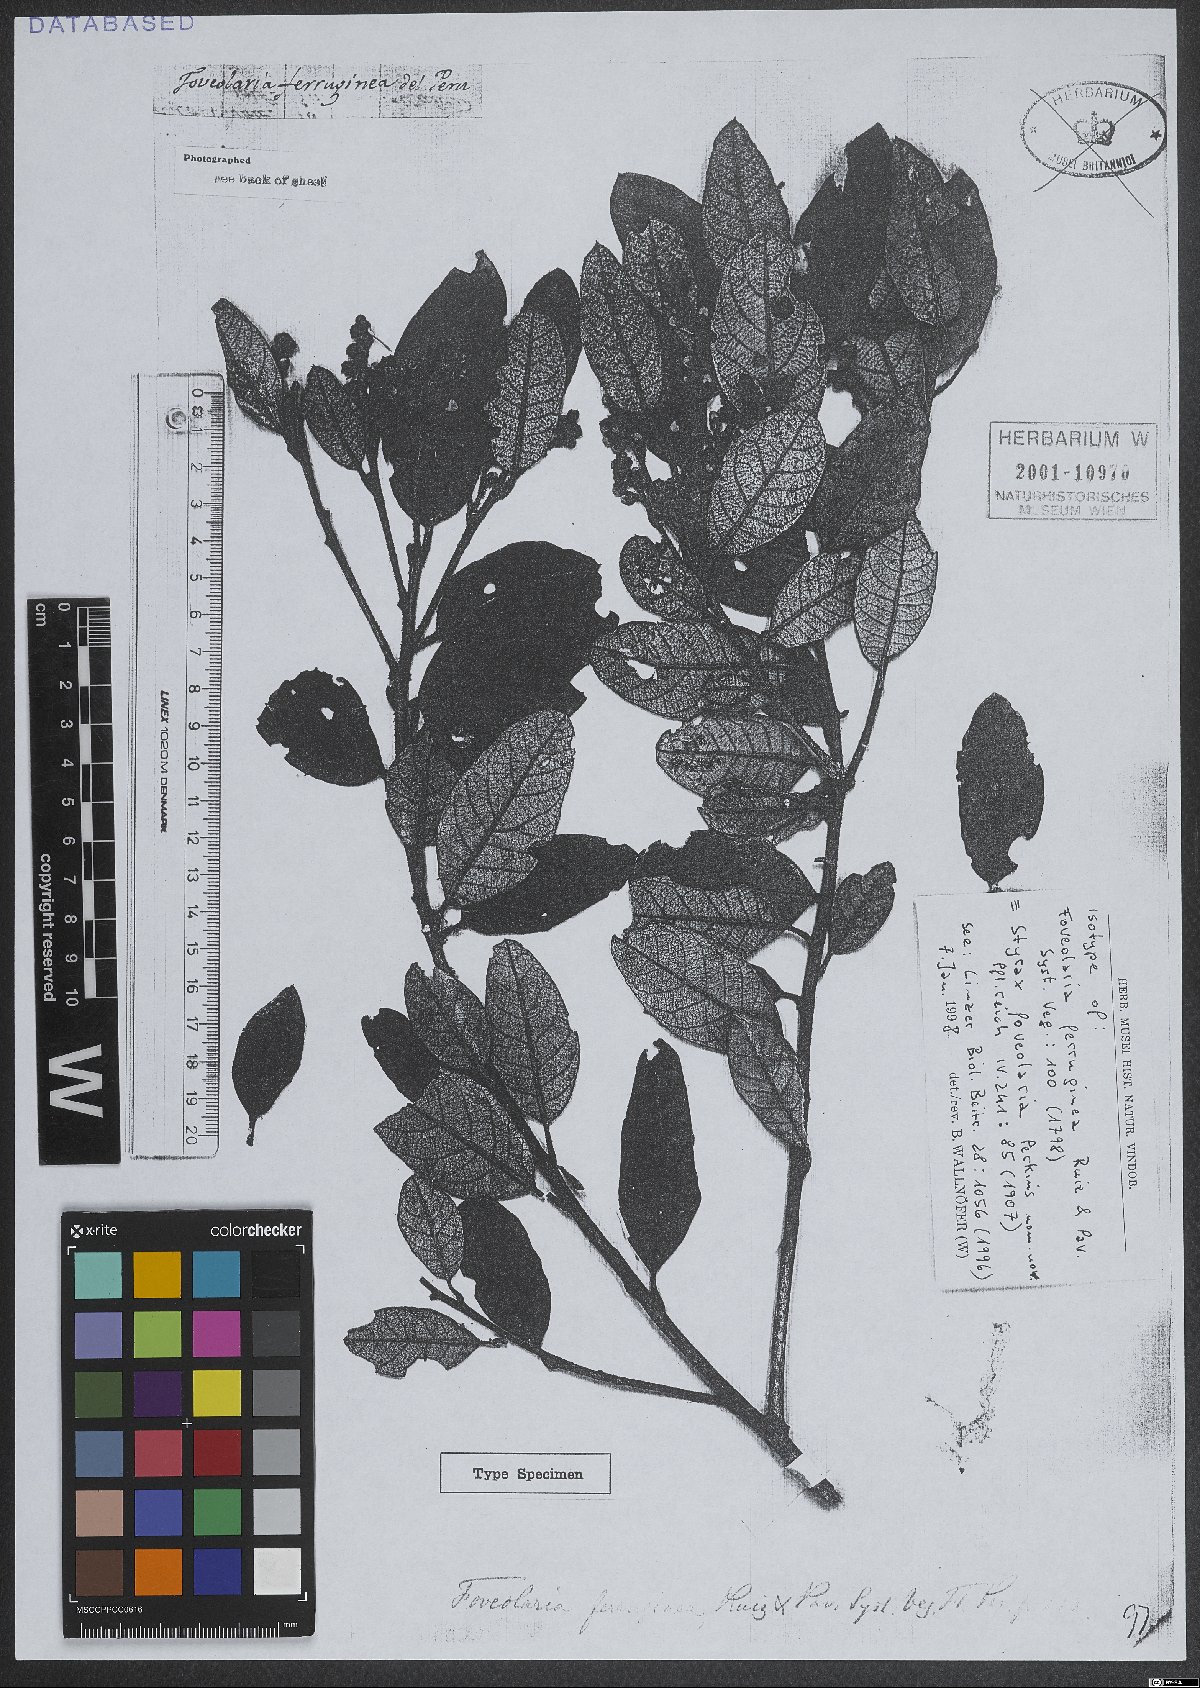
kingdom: Plantae
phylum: Tracheophyta
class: Magnoliopsida
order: Ericales
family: Styracaceae
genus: Styrax
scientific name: Styrax racemosus
